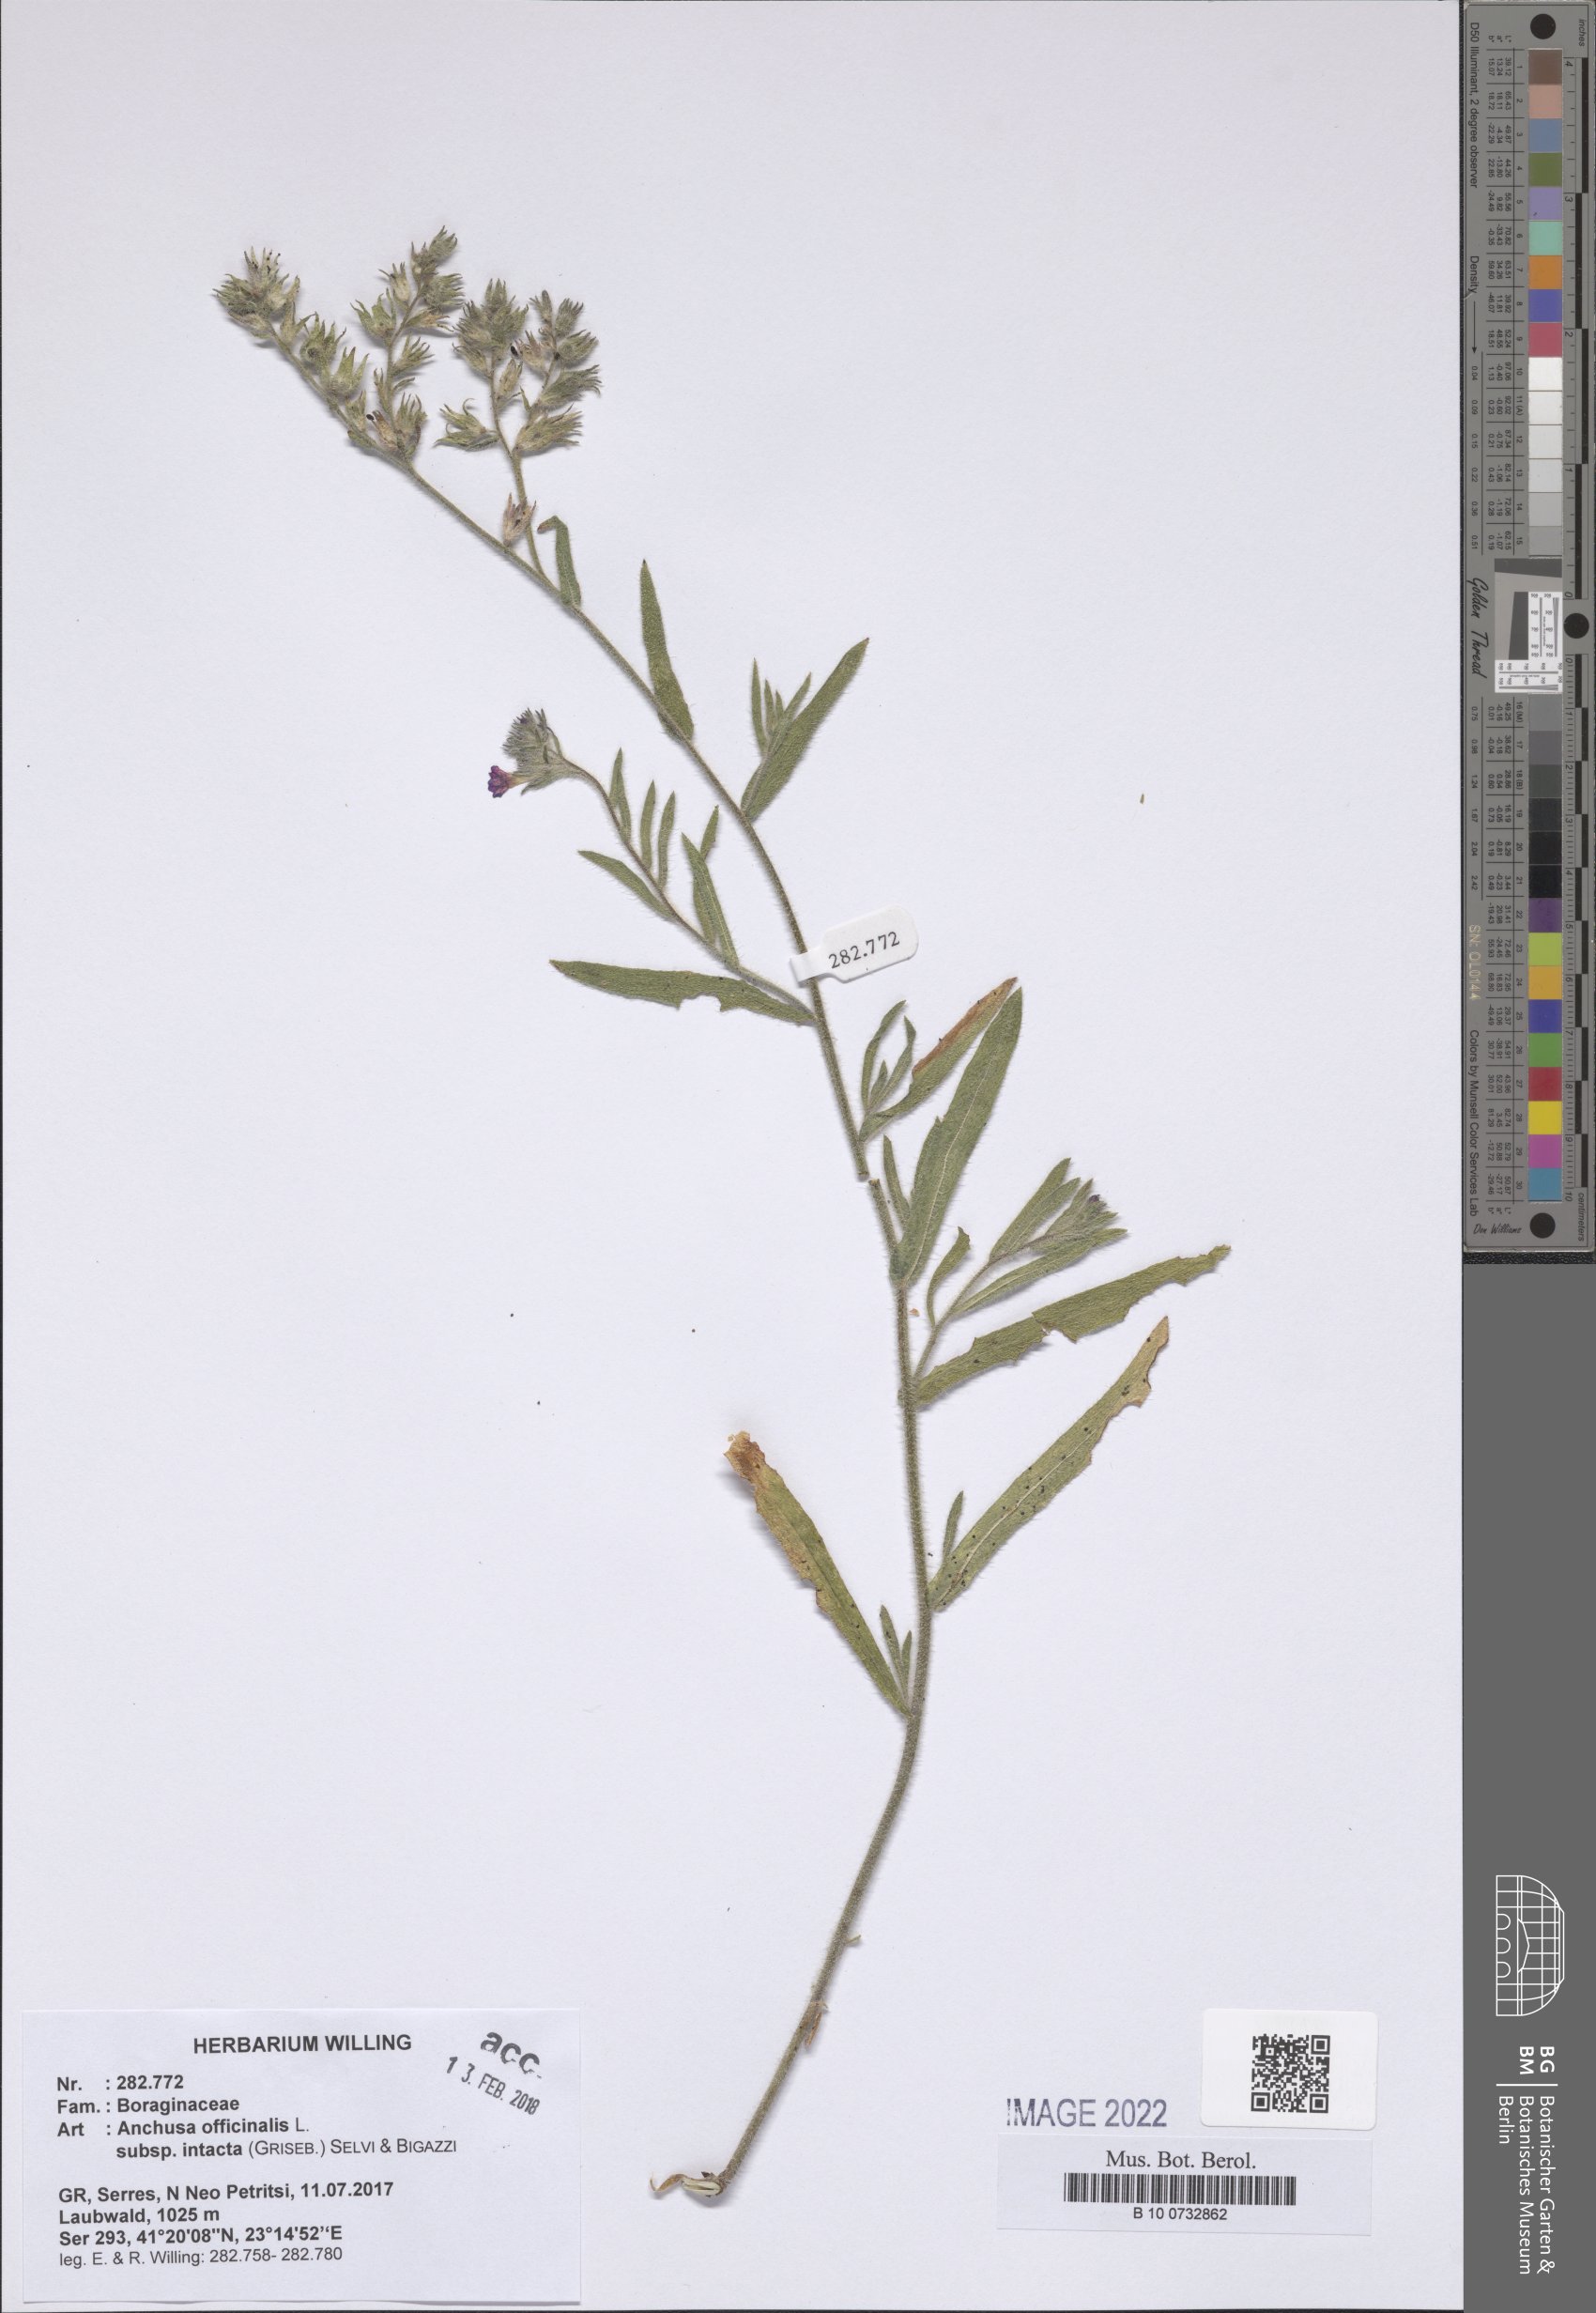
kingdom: Plantae
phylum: Tracheophyta
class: Magnoliopsida
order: Boraginales
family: Boraginaceae
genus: Anchusa
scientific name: Anchusa officinalis
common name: Alkanet
